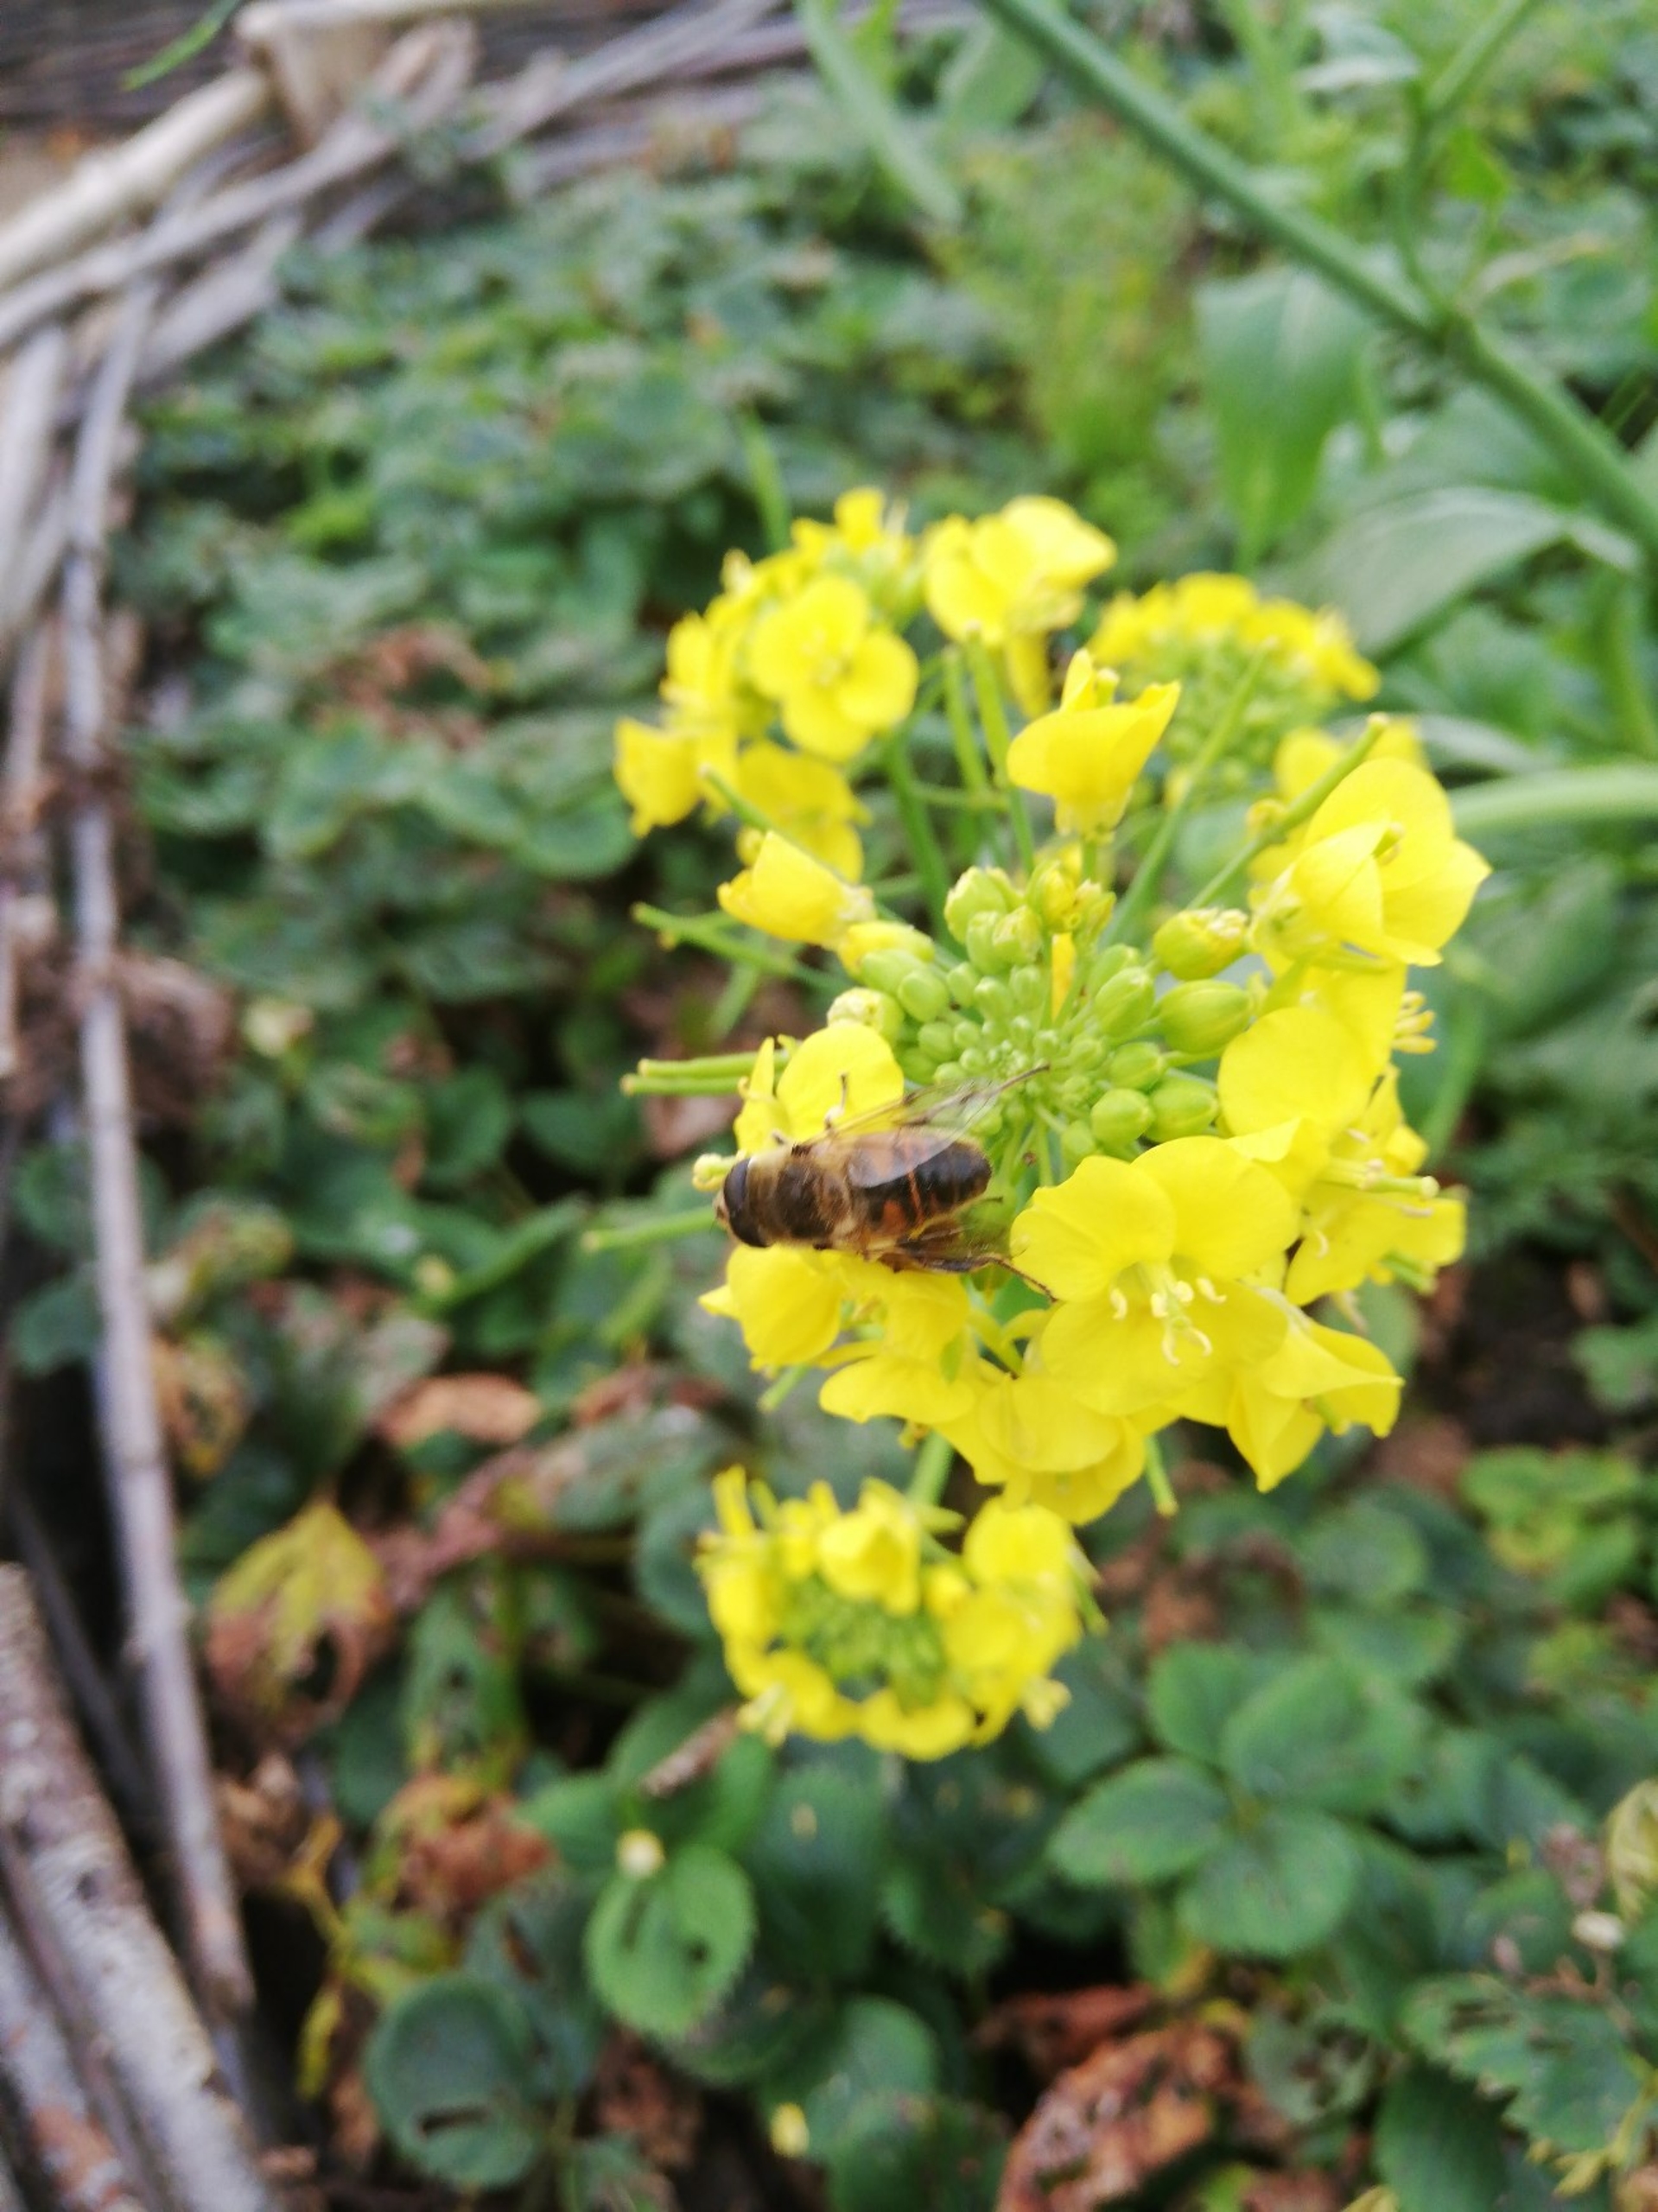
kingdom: Animalia
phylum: Arthropoda
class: Insecta
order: Diptera
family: Syrphidae
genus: Eristalis
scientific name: Eristalis
